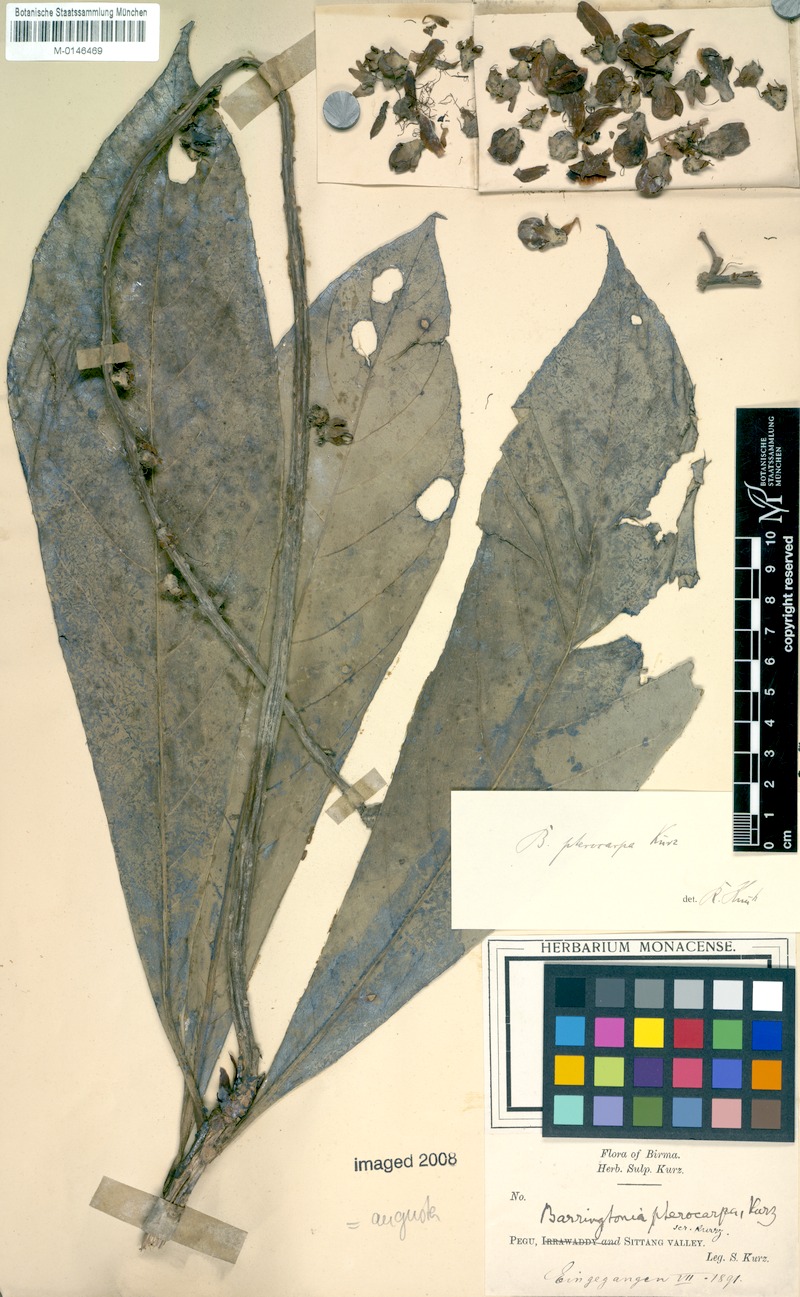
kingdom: Plantae
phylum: Tracheophyta
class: Magnoliopsida
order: Ericales
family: Lecythidaceae
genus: Barringtonia
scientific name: Barringtonia angusta
